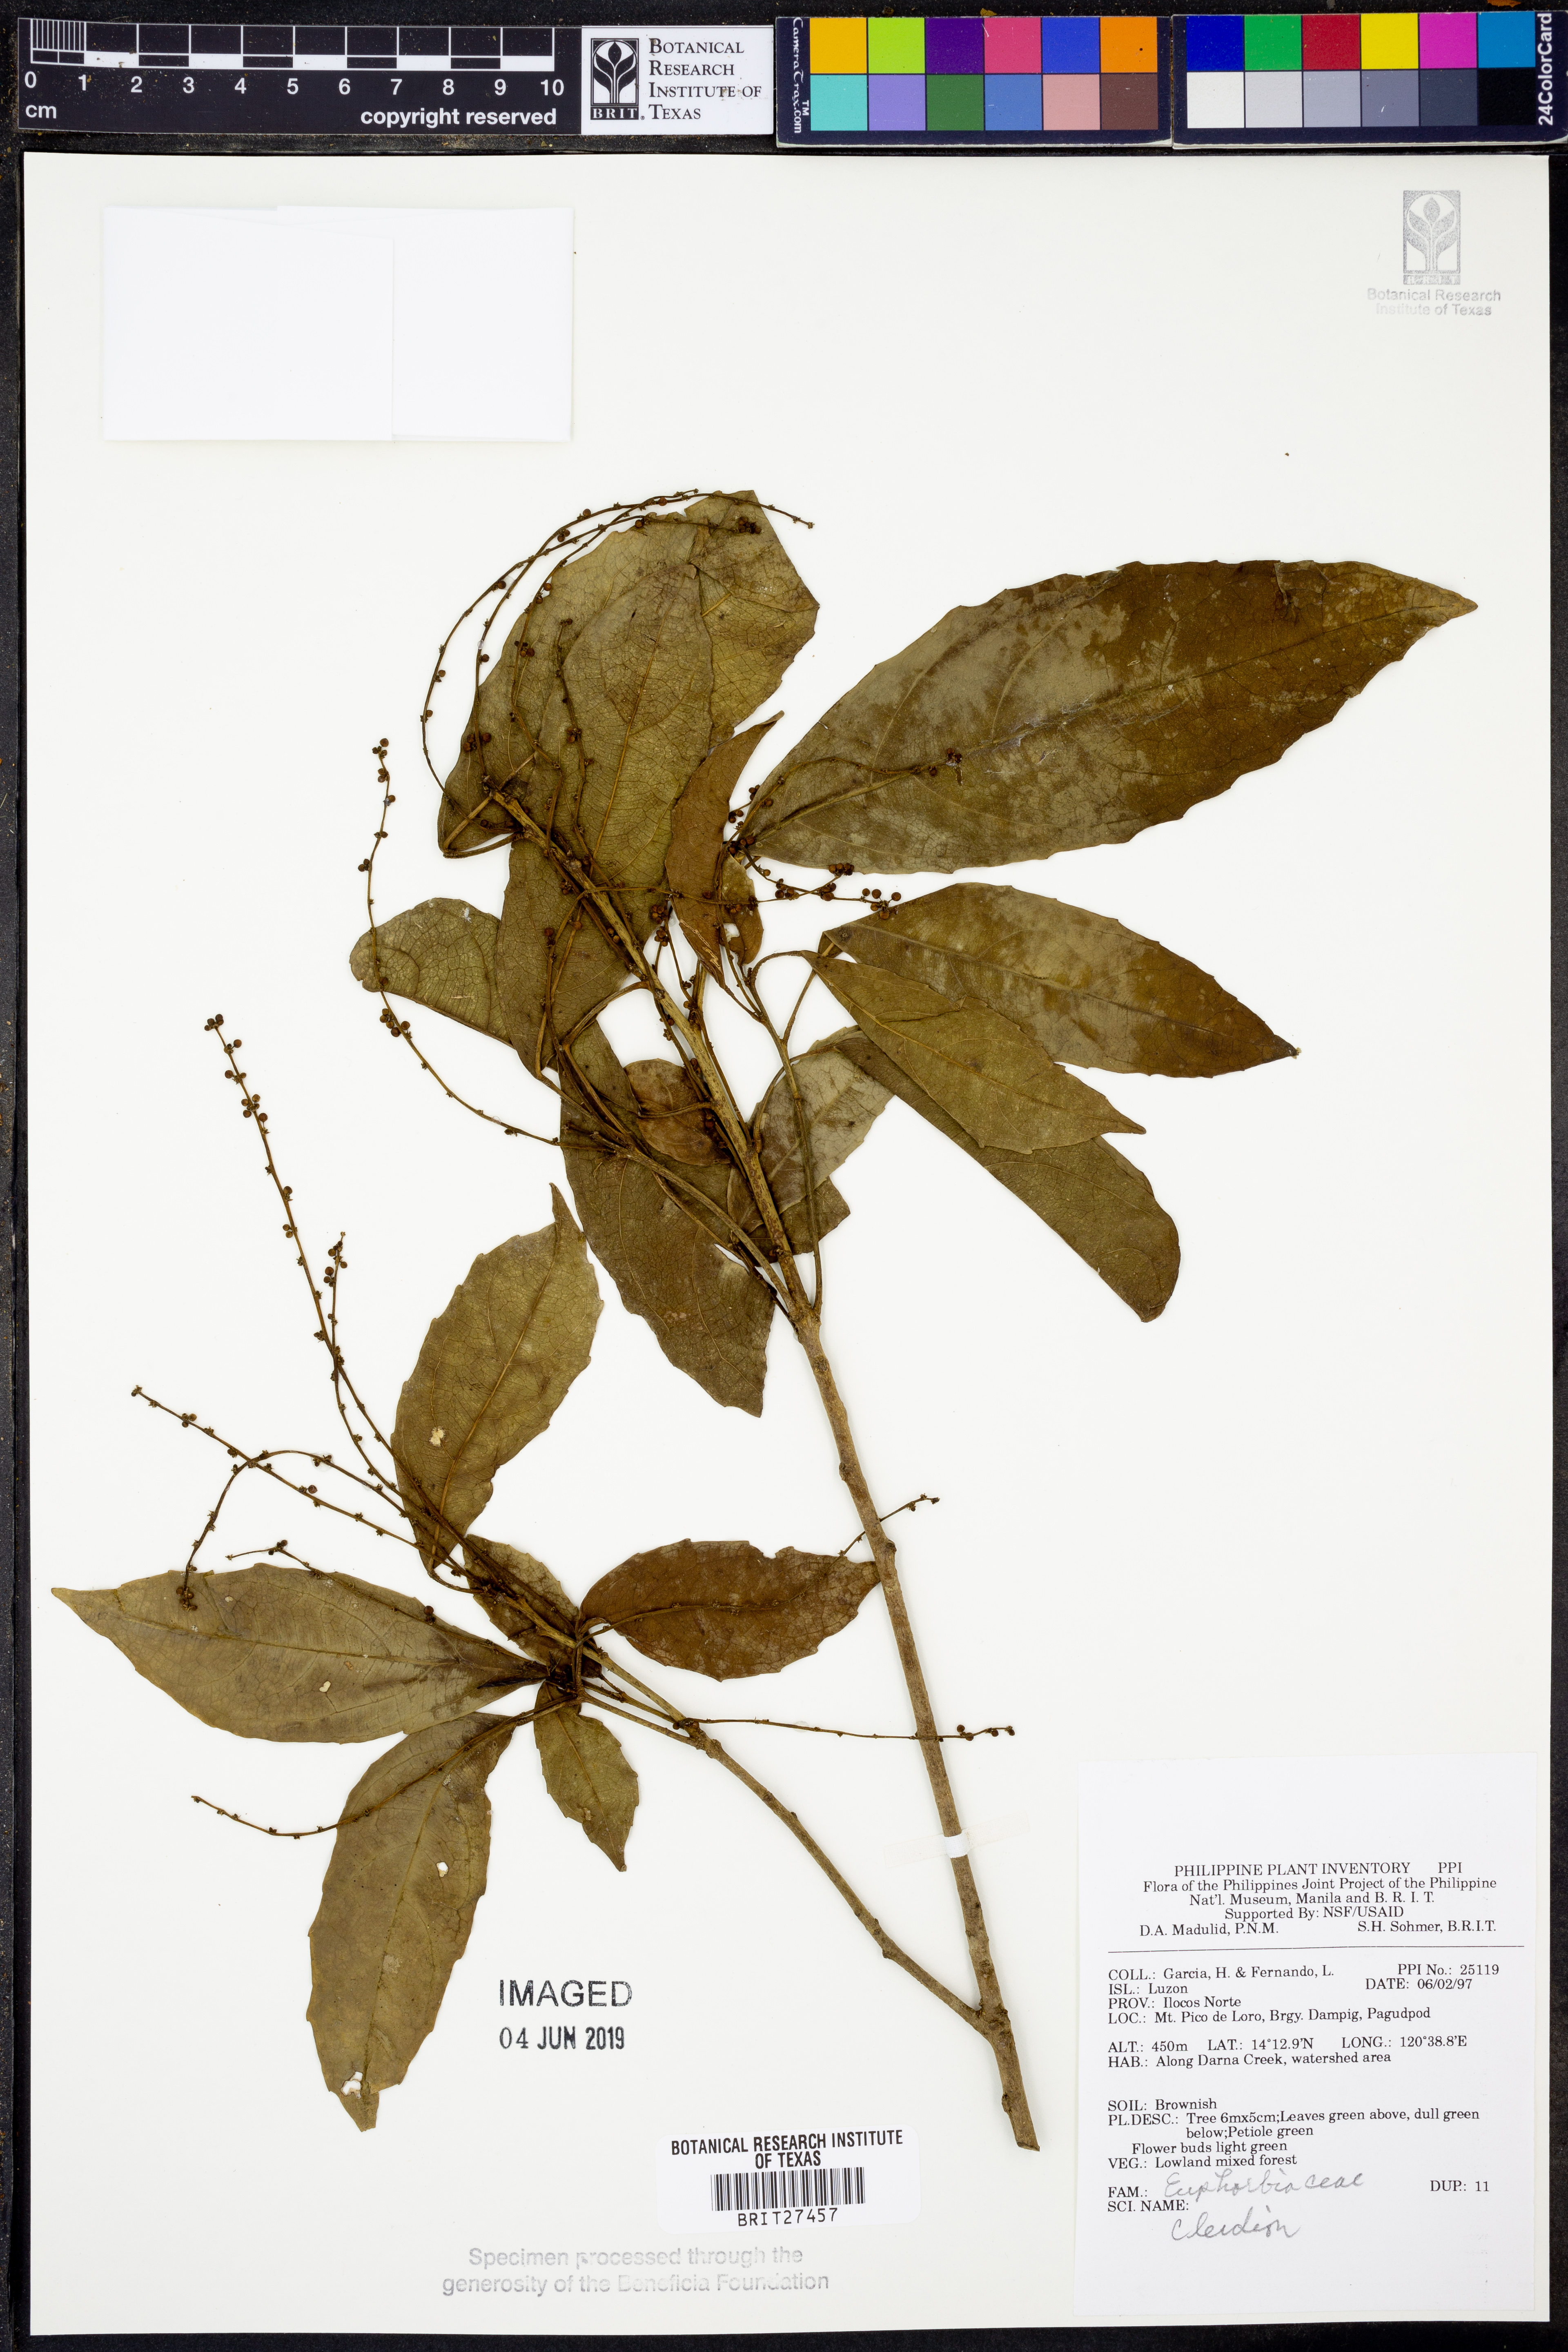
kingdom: Plantae
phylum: Tracheophyta
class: Magnoliopsida
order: Malpighiales
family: Euphorbiaceae
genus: Cleidion
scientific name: Cleidion
